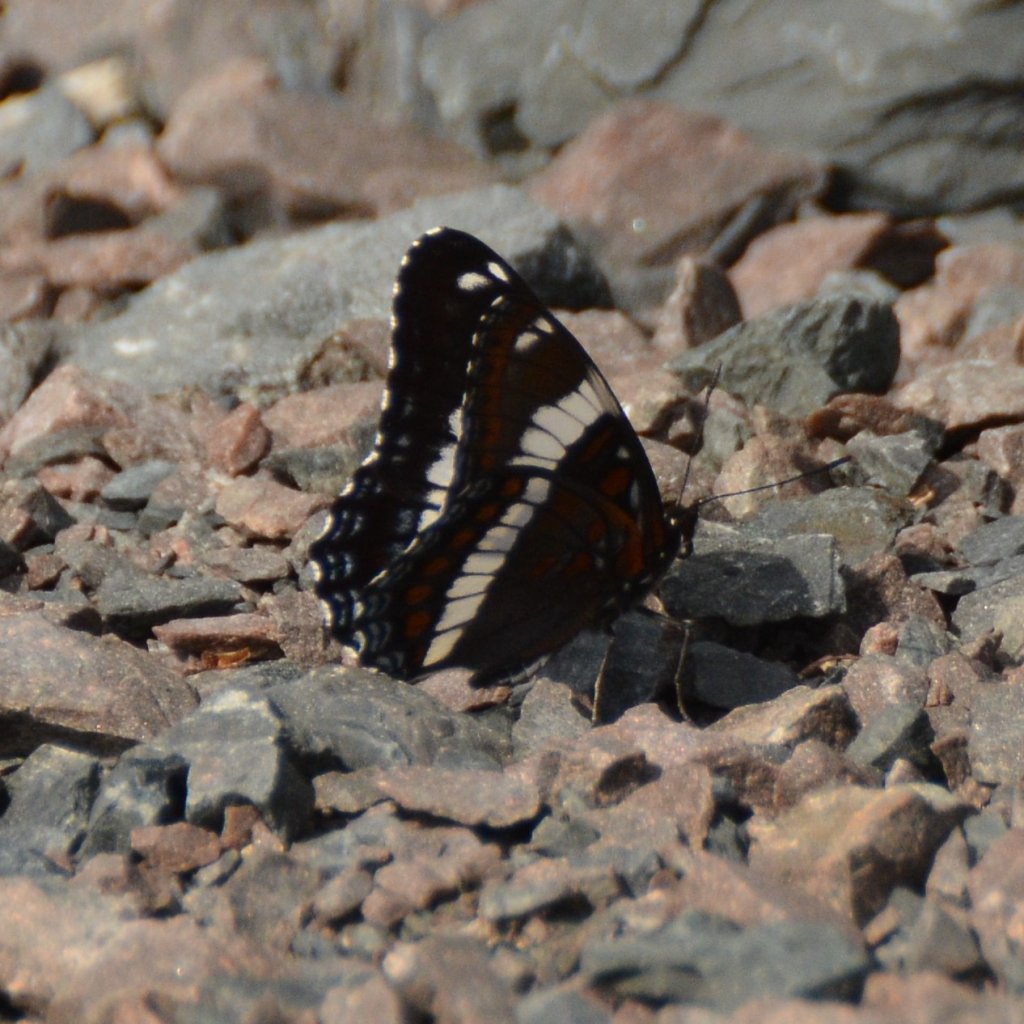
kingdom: Animalia
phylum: Arthropoda
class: Insecta
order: Lepidoptera
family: Nymphalidae
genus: Limenitis
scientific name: Limenitis arthemis
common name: Red-spotted Admiral
